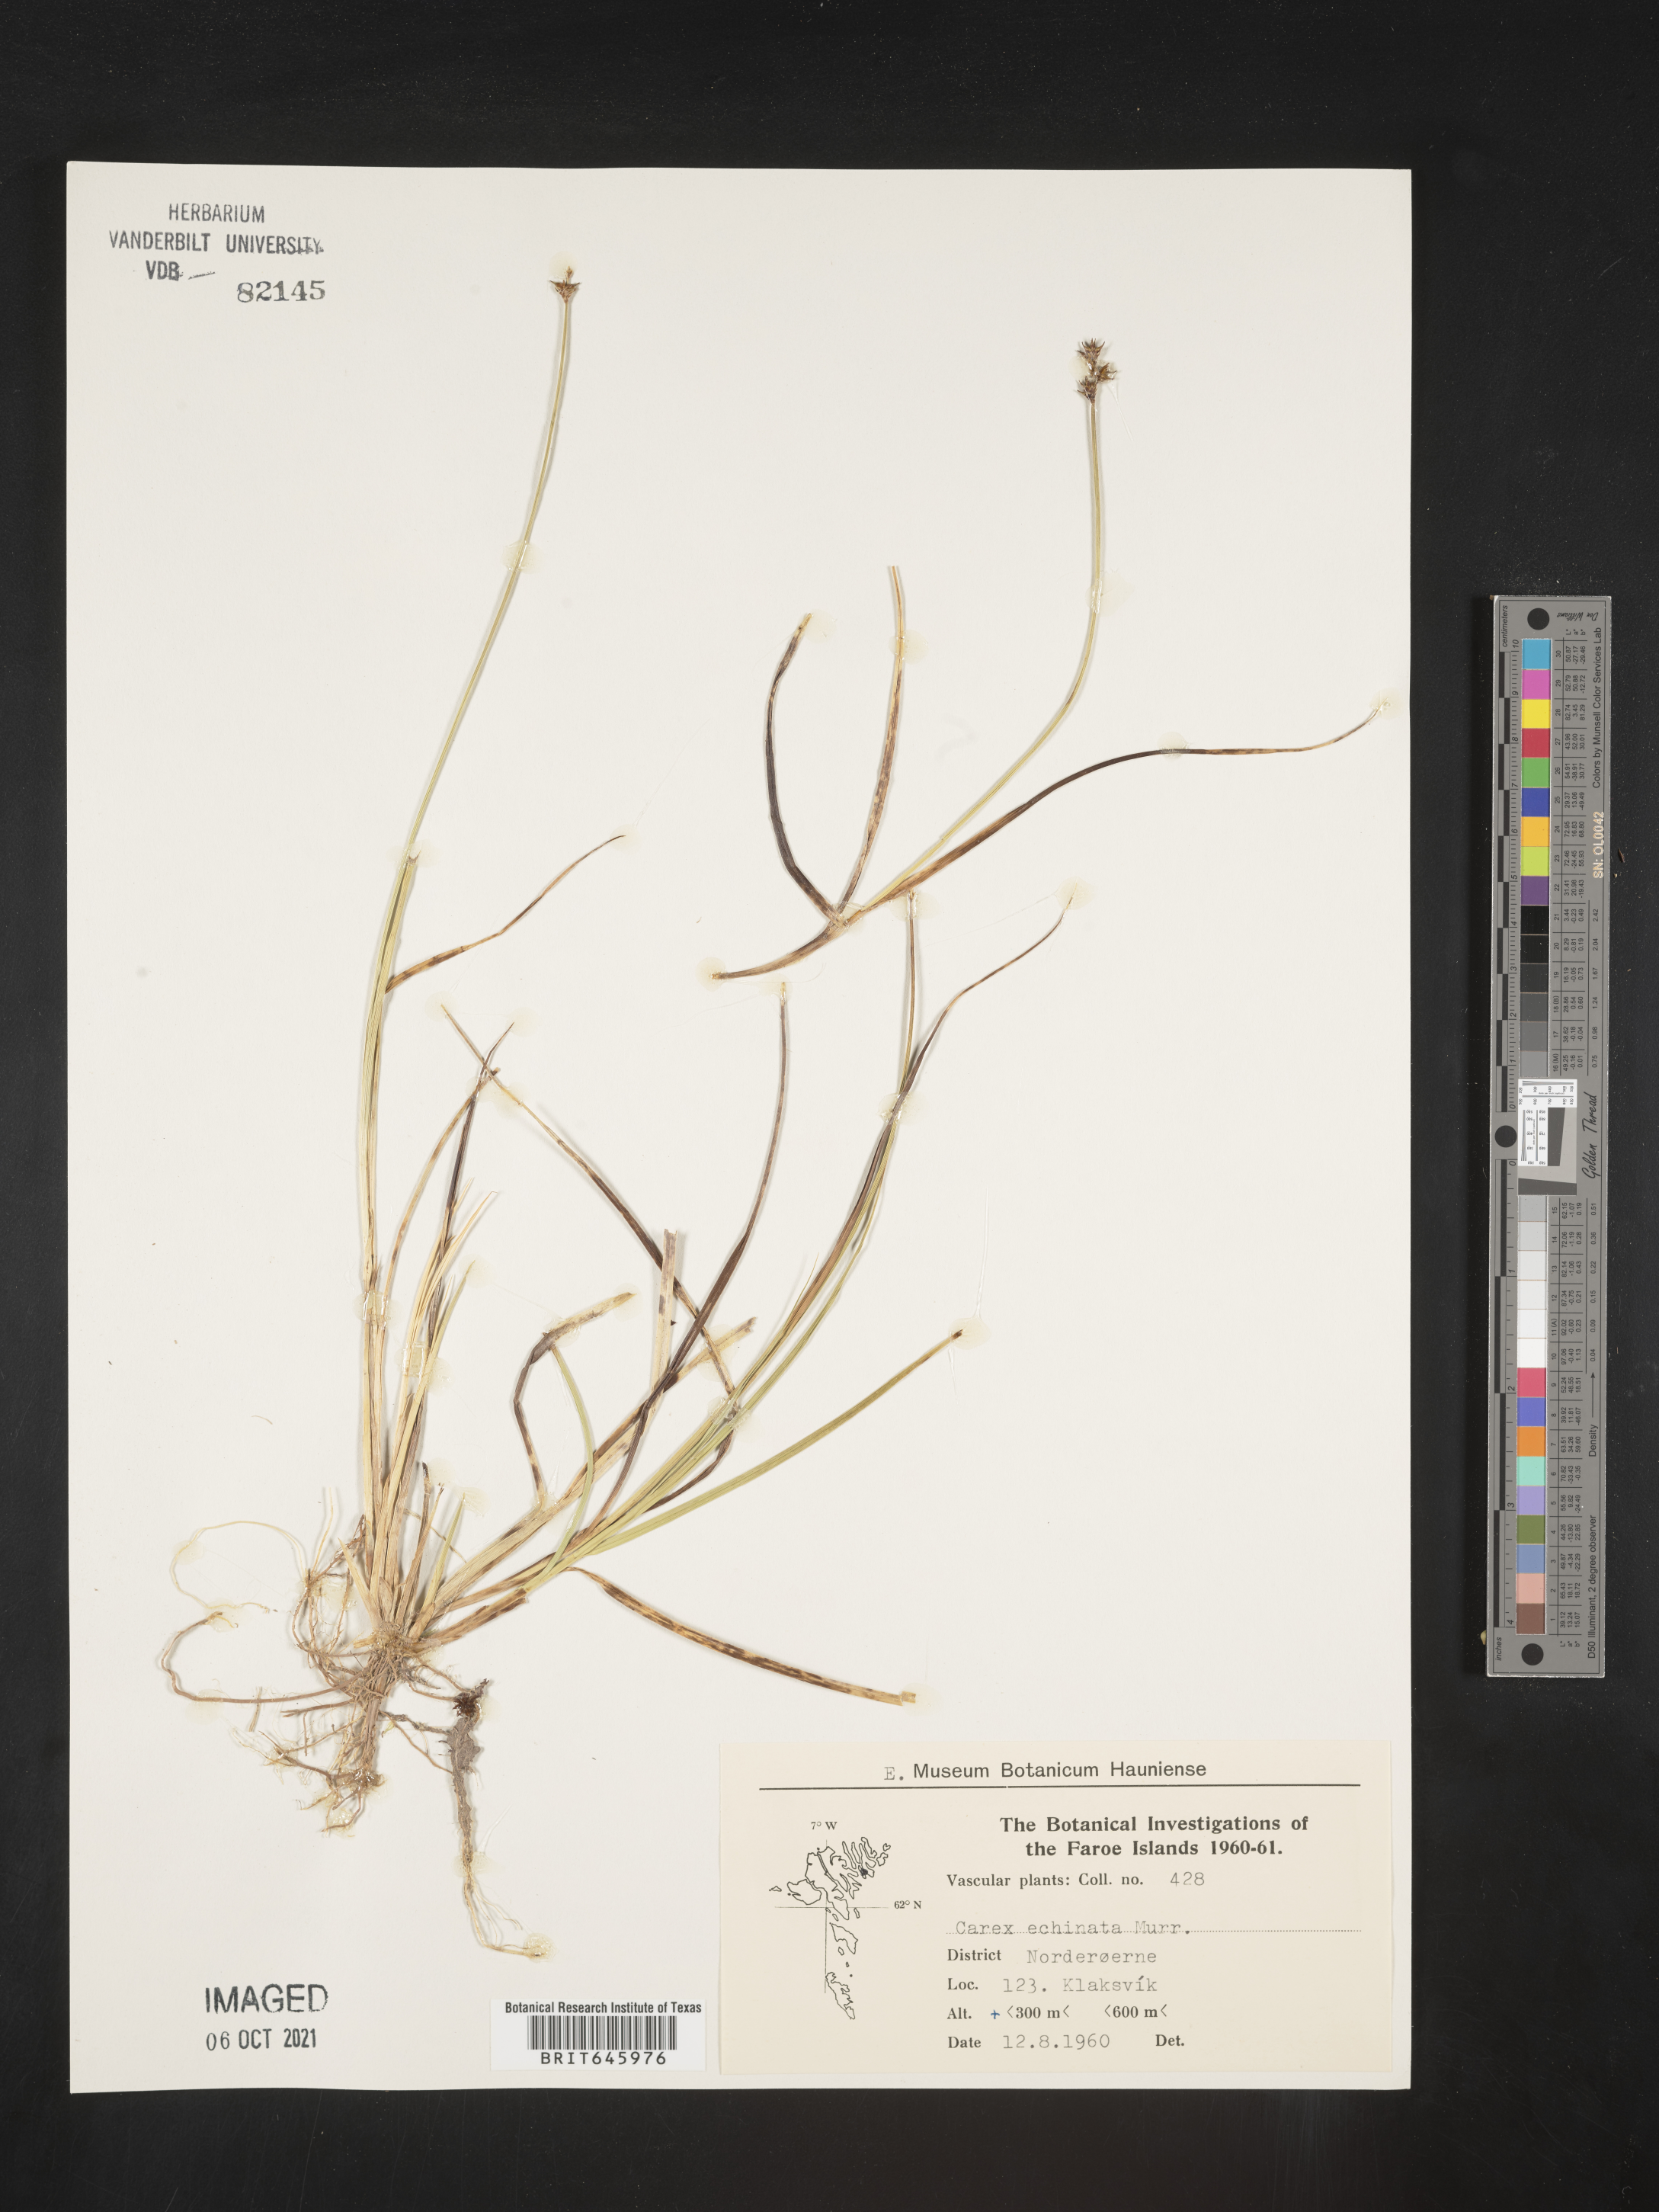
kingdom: Plantae
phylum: Tracheophyta
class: Liliopsida
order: Poales
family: Cyperaceae
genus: Carex
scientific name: Carex echinata
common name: Star sedge
